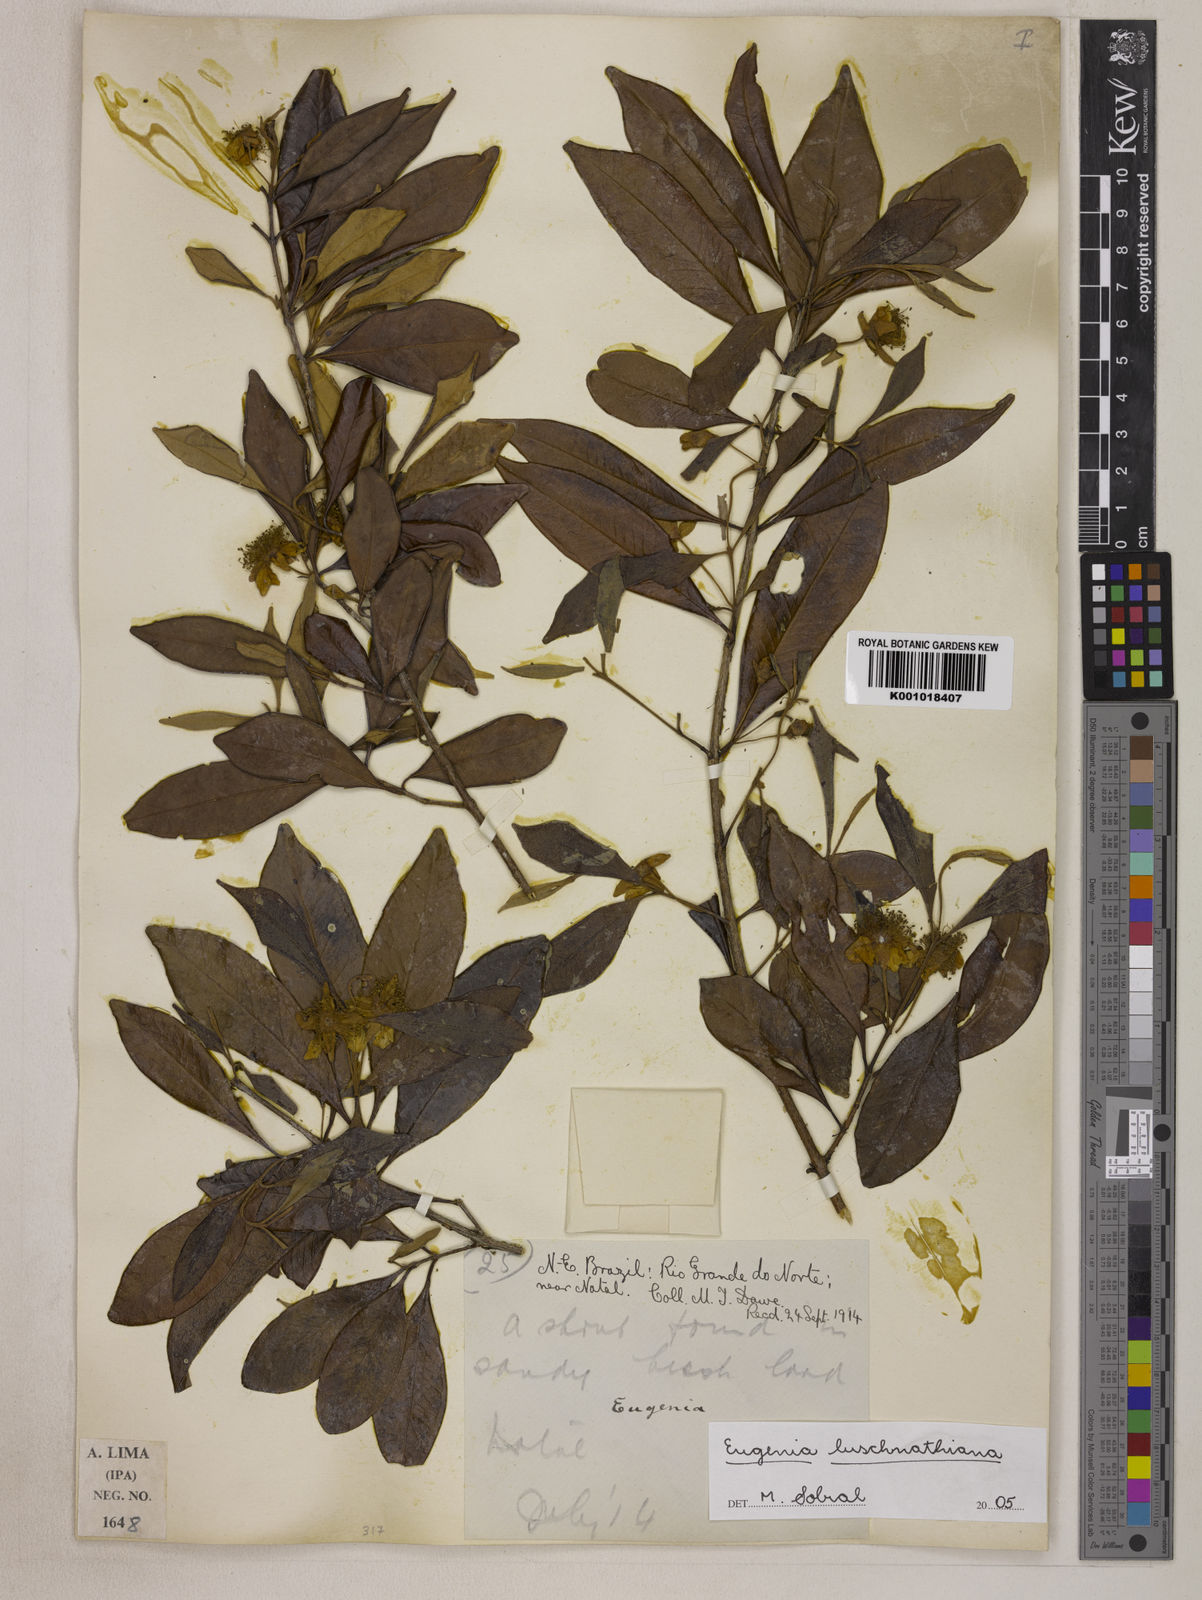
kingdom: Plantae
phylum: Tracheophyta
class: Magnoliopsida
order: Myrtales
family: Myrtaceae
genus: Eugenia
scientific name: Eugenia
